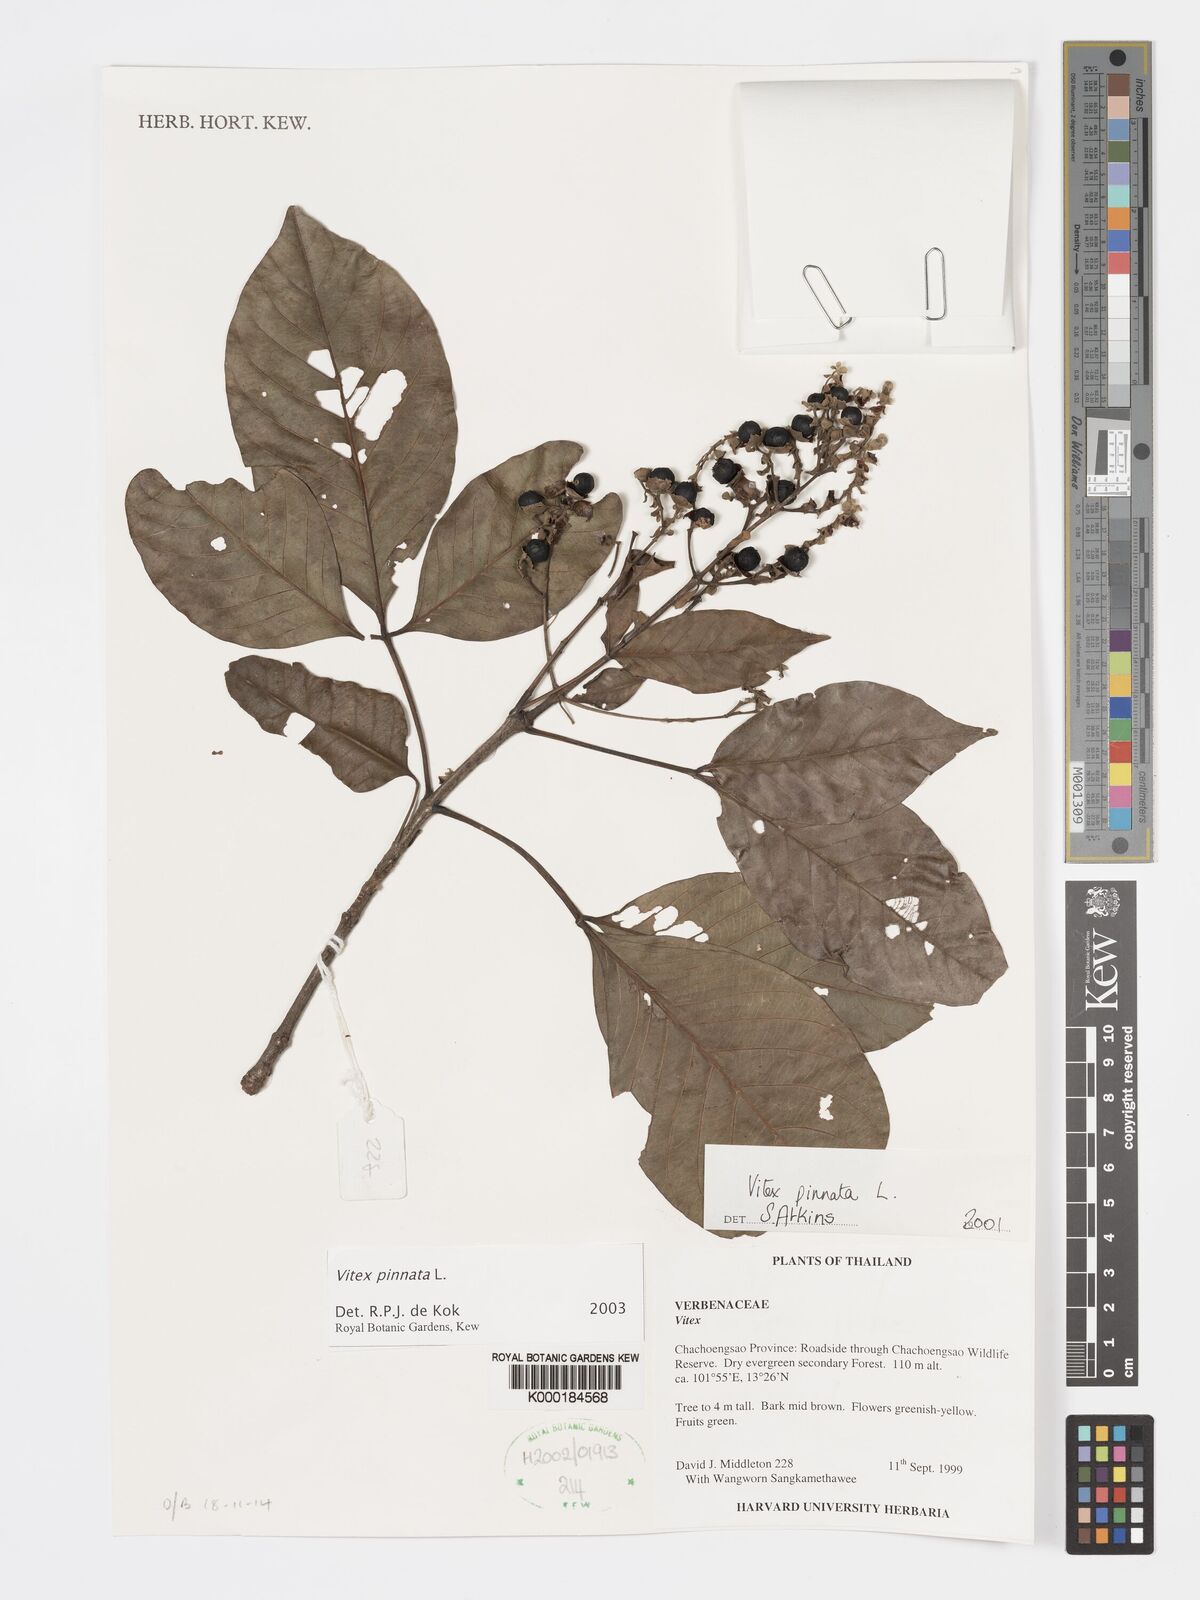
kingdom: Plantae
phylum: Tracheophyta
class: Magnoliopsida
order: Lamiales
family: Lamiaceae
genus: Vitex
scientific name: Vitex pinnata
